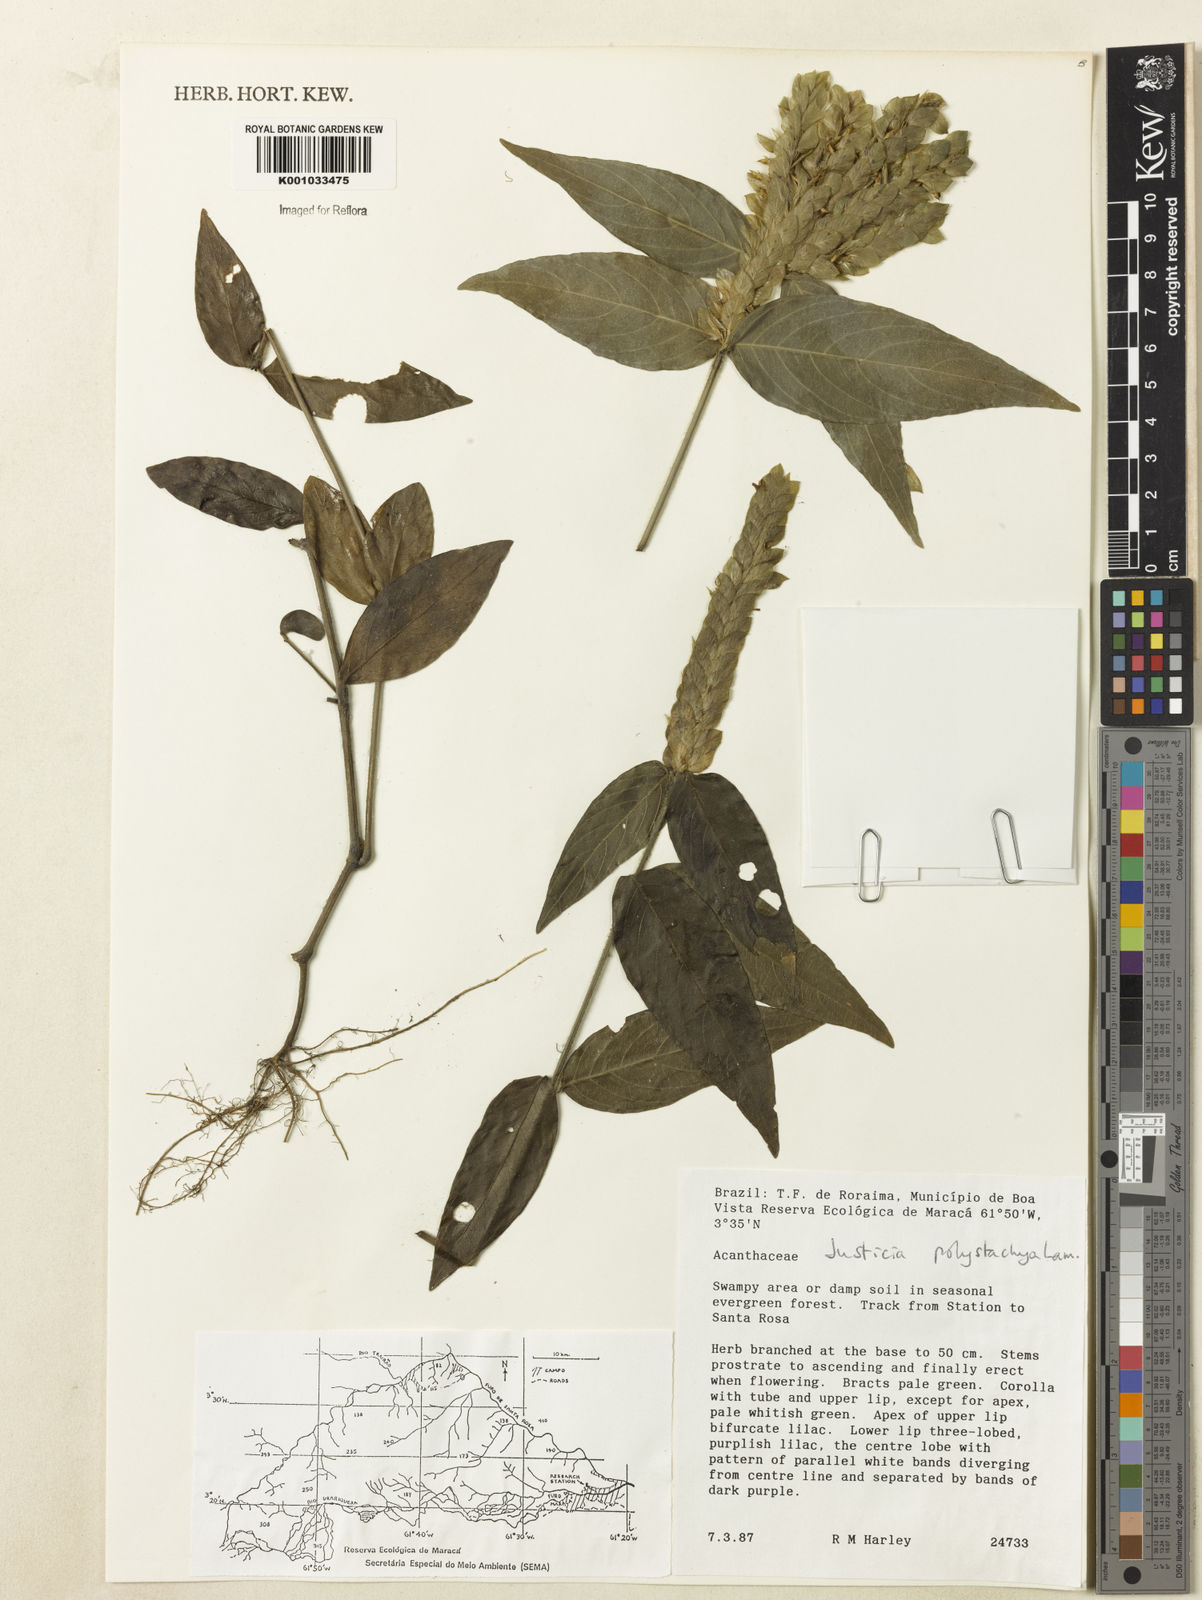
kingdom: Plantae
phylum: Tracheophyta
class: Magnoliopsida
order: Lamiales
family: Acanthaceae
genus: Justicia
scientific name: Justicia polystachya
